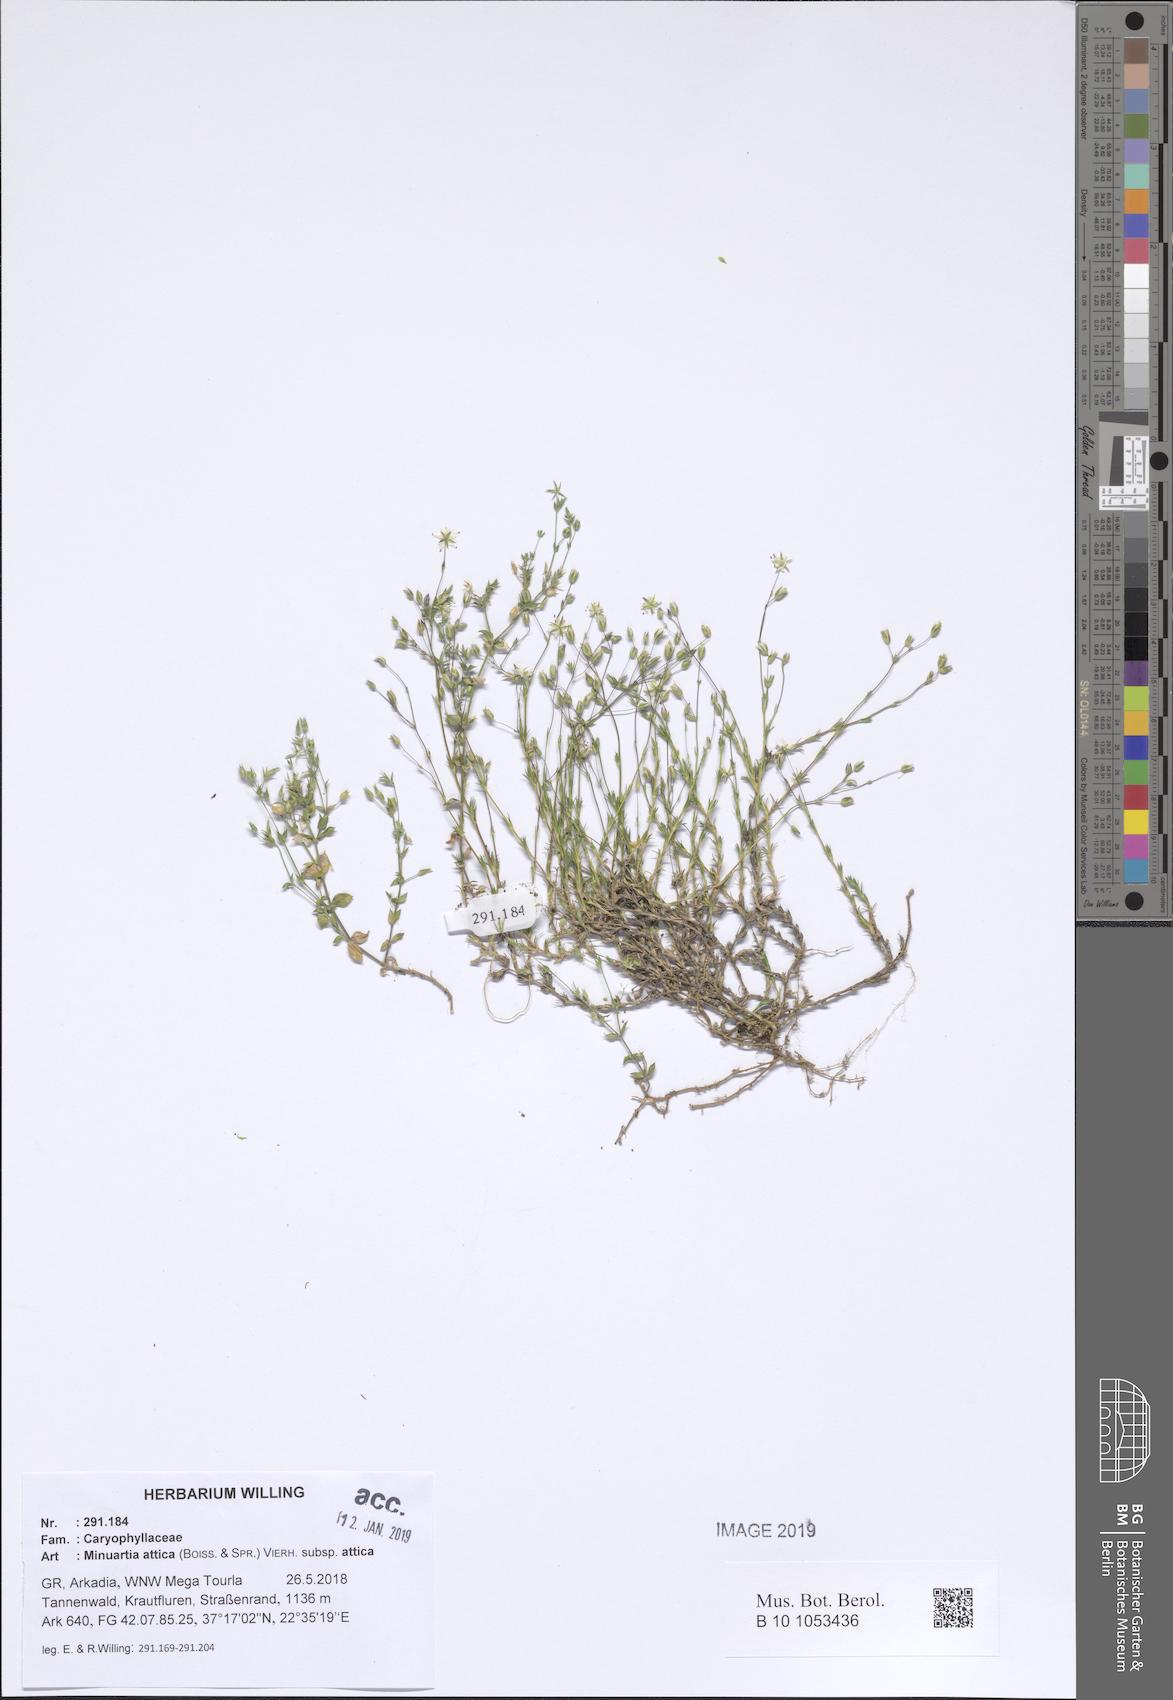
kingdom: Plantae
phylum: Tracheophyta
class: Magnoliopsida
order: Caryophyllales
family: Caryophyllaceae
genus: Sabulina
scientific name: Sabulina attica
